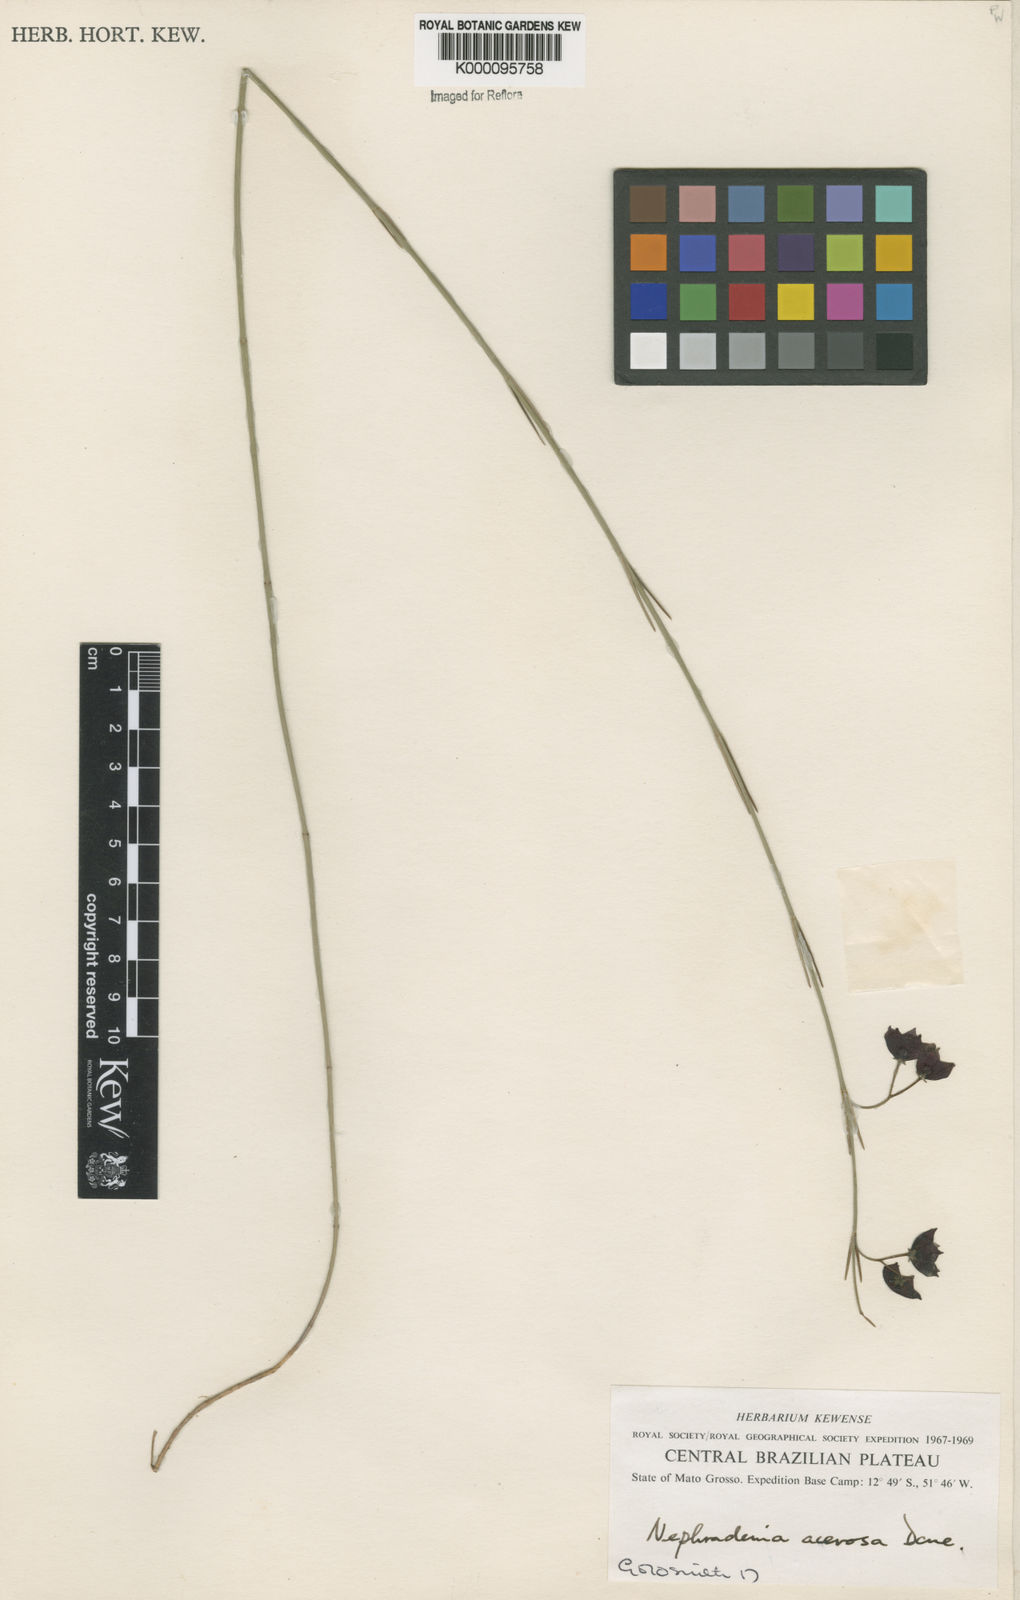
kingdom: Plantae
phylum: Tracheophyta
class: Magnoliopsida
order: Gentianales
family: Apocynaceae
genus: Nephradenia
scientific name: Nephradenia acerosa
